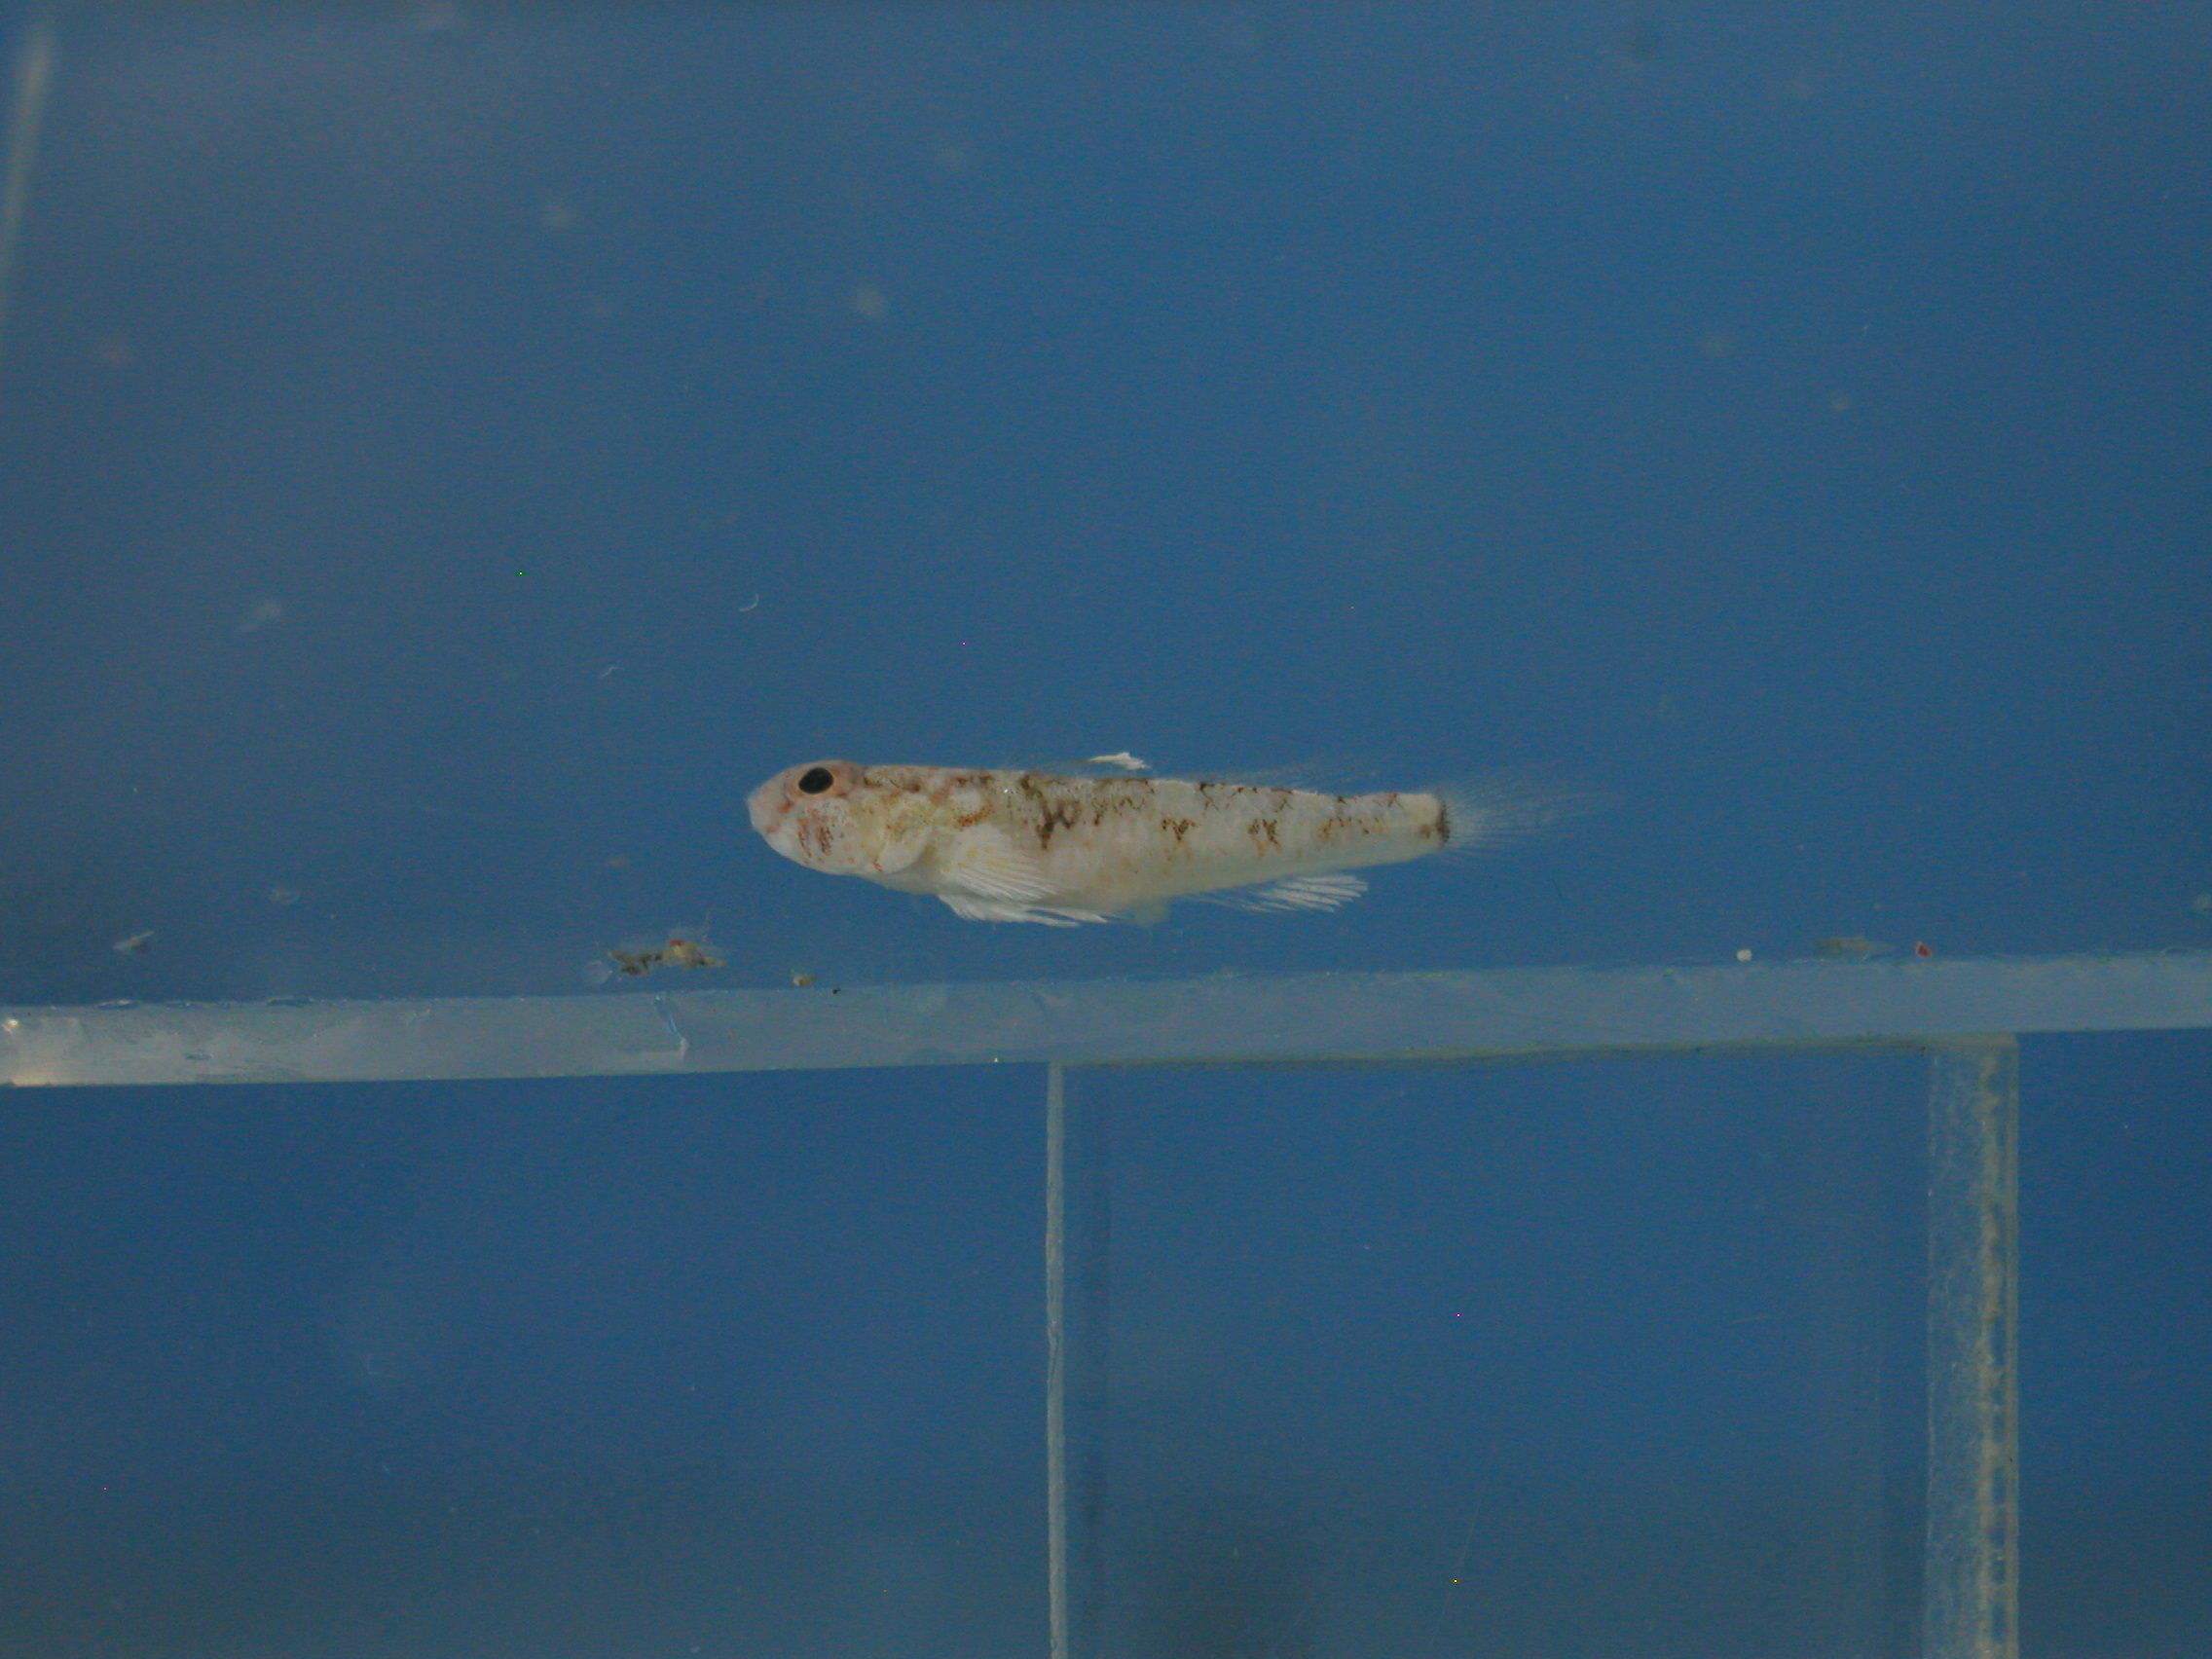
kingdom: Animalia
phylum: Chordata
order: Perciformes
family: Gobiidae
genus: Cabillus
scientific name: Cabillus lacertops
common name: Lizard cabillus
